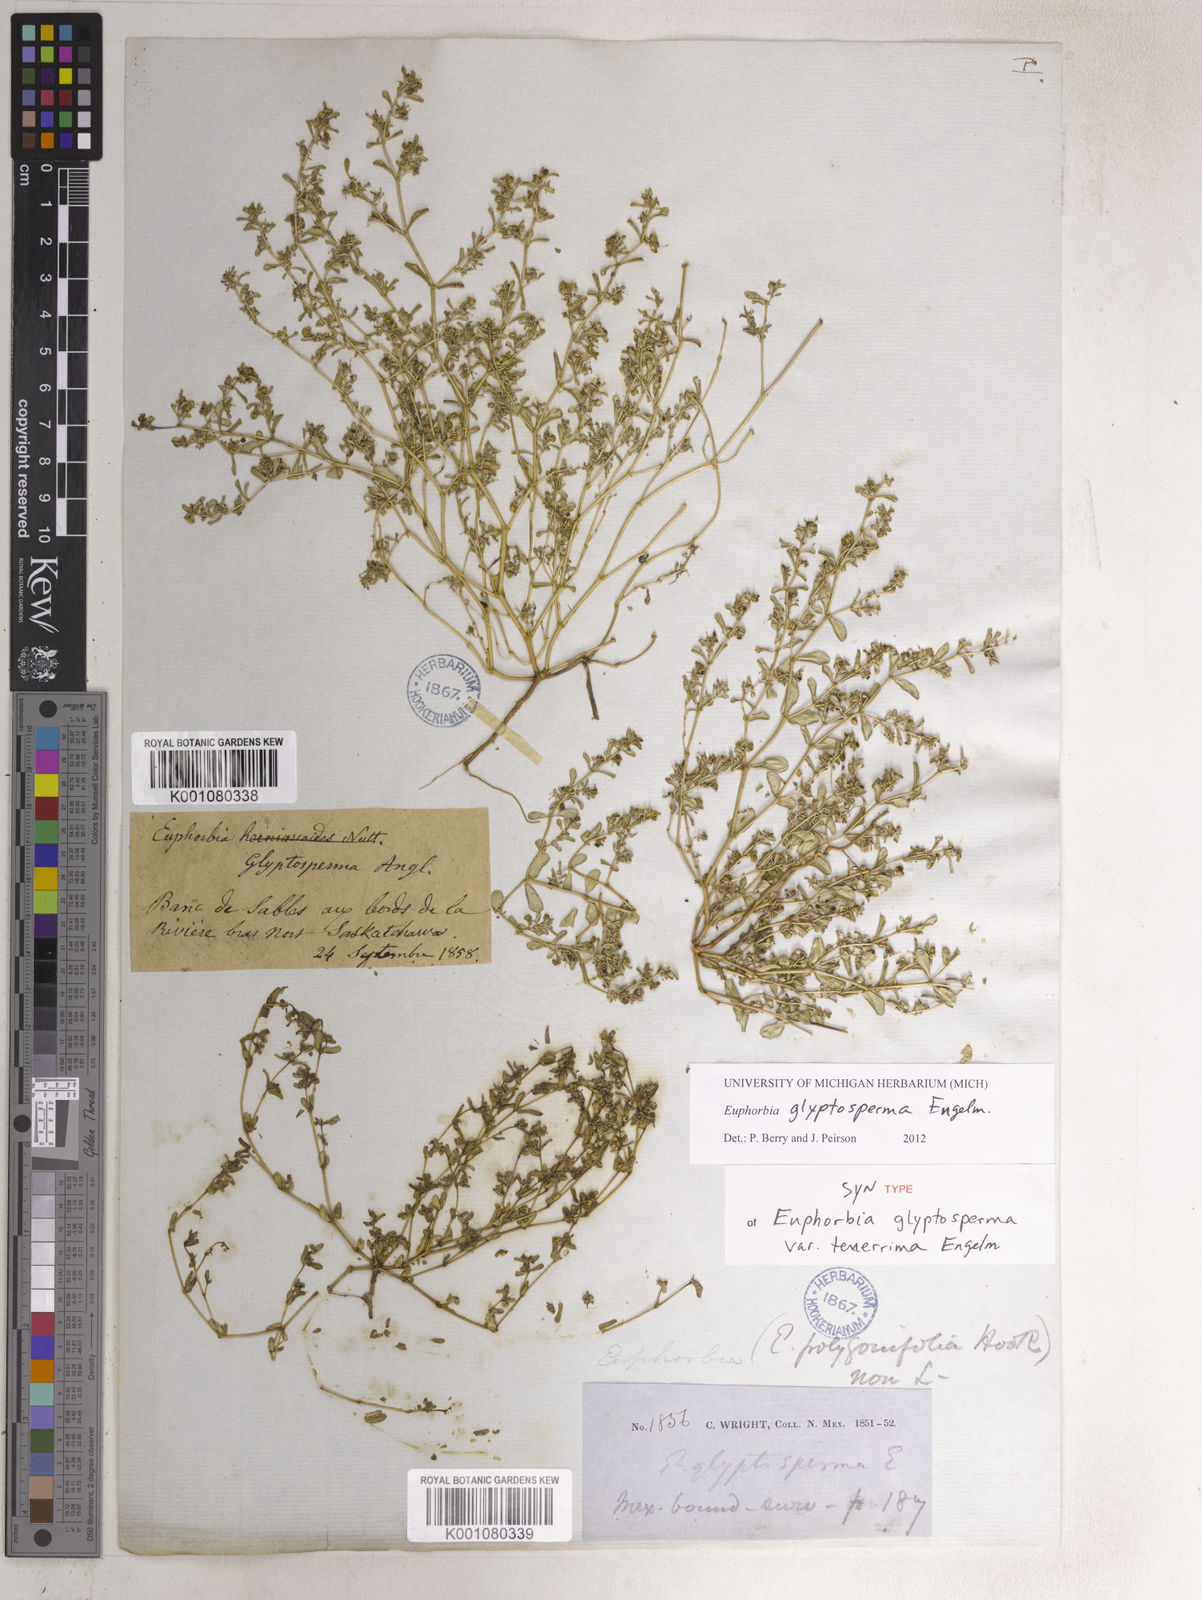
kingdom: Plantae
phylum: Tracheophyta
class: Magnoliopsida
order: Malpighiales
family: Euphorbiaceae
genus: Euphorbia
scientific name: Euphorbia
